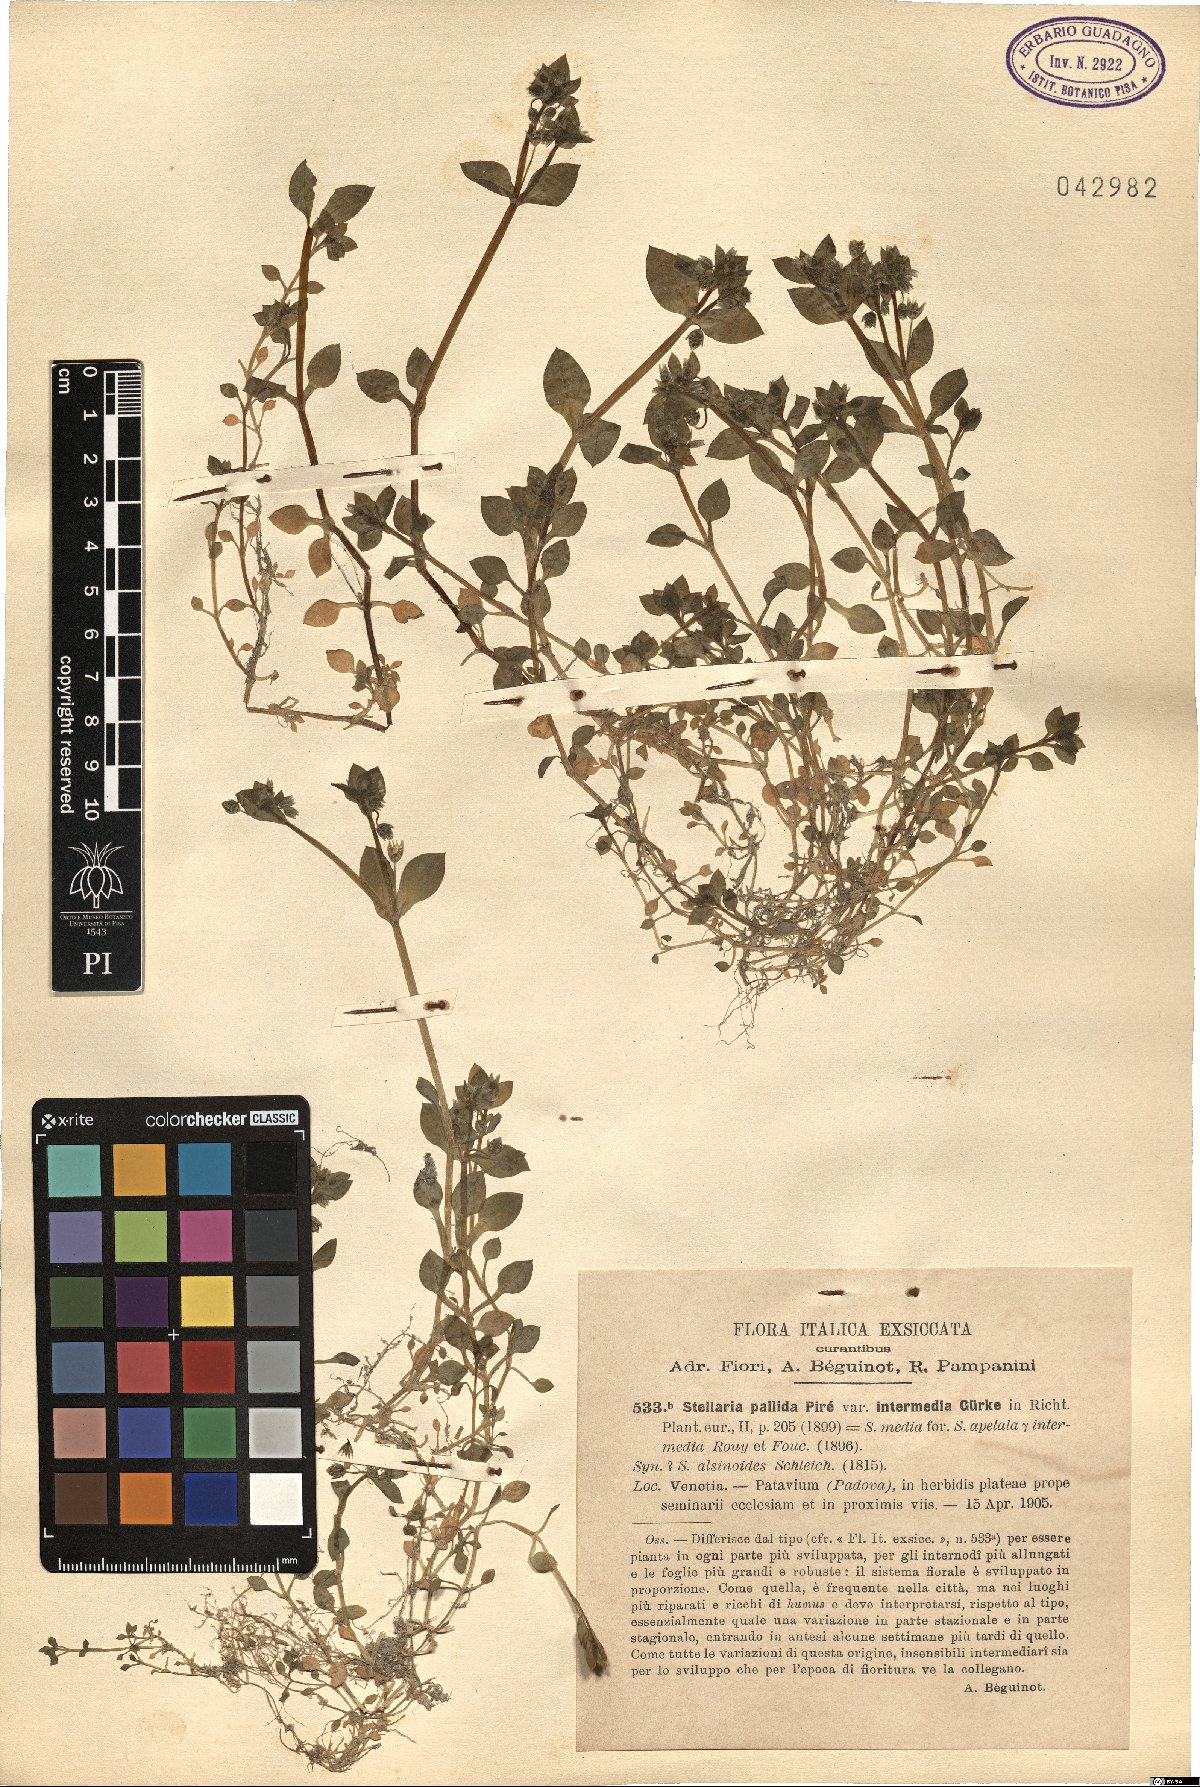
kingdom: Plantae
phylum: Tracheophyta
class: Magnoliopsida
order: Caryophyllales
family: Caryophyllaceae
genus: Stellaria
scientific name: Stellaria apetala
